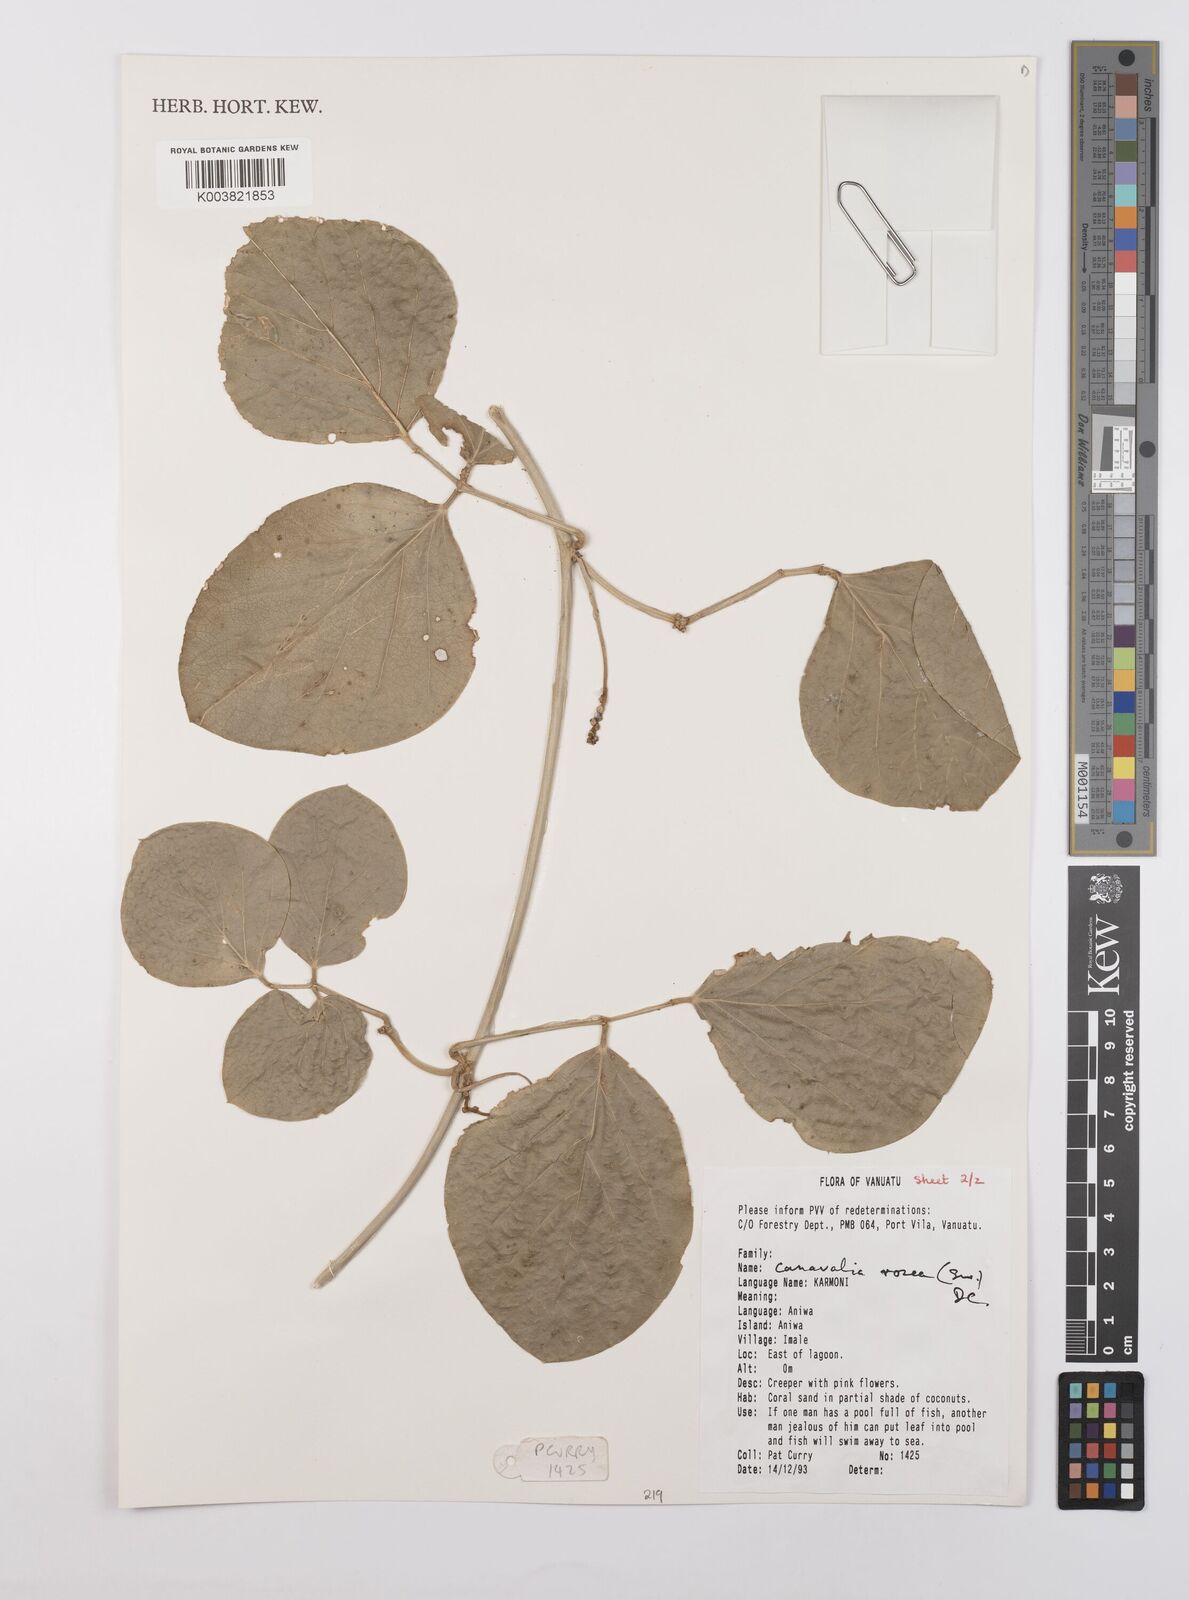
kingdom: Plantae
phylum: Tracheophyta
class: Magnoliopsida
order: Fabales
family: Fabaceae
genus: Canavalia
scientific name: Canavalia rosea
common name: Beach-bean
